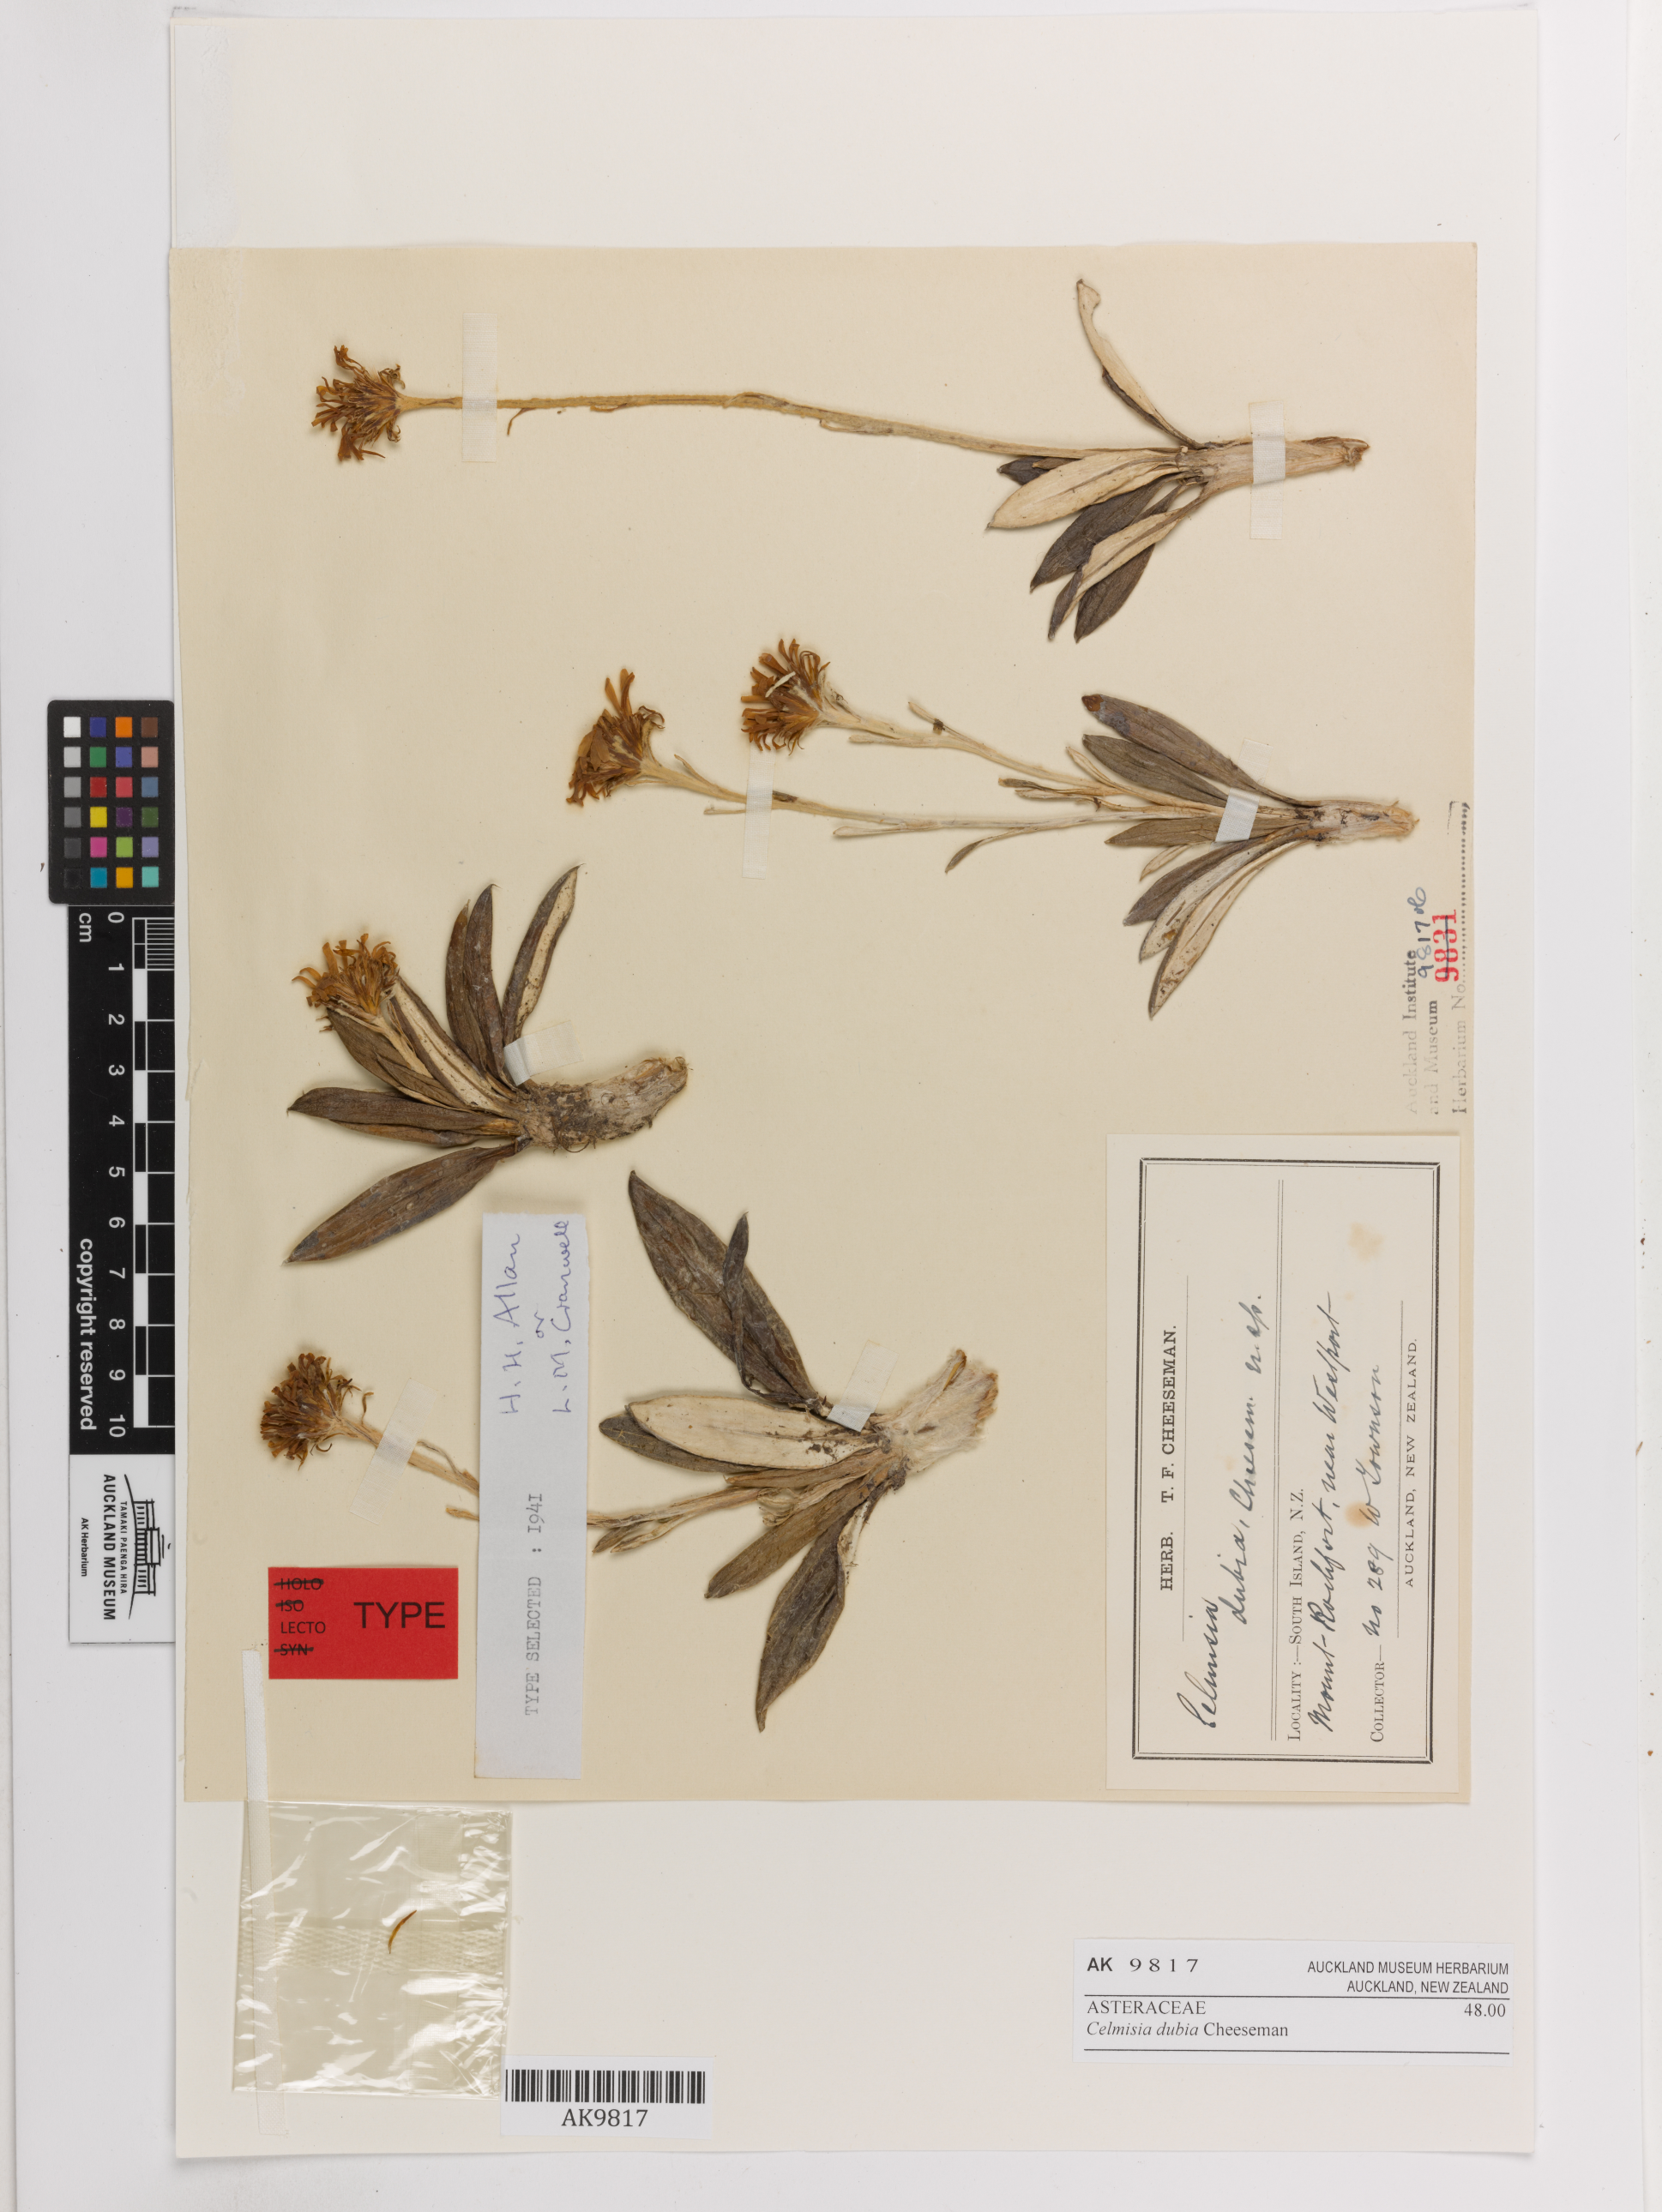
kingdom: Plantae
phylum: Tracheophyta
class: Magnoliopsida
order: Asterales
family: Asteraceae
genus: Celmisia
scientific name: Celmisia dubia
